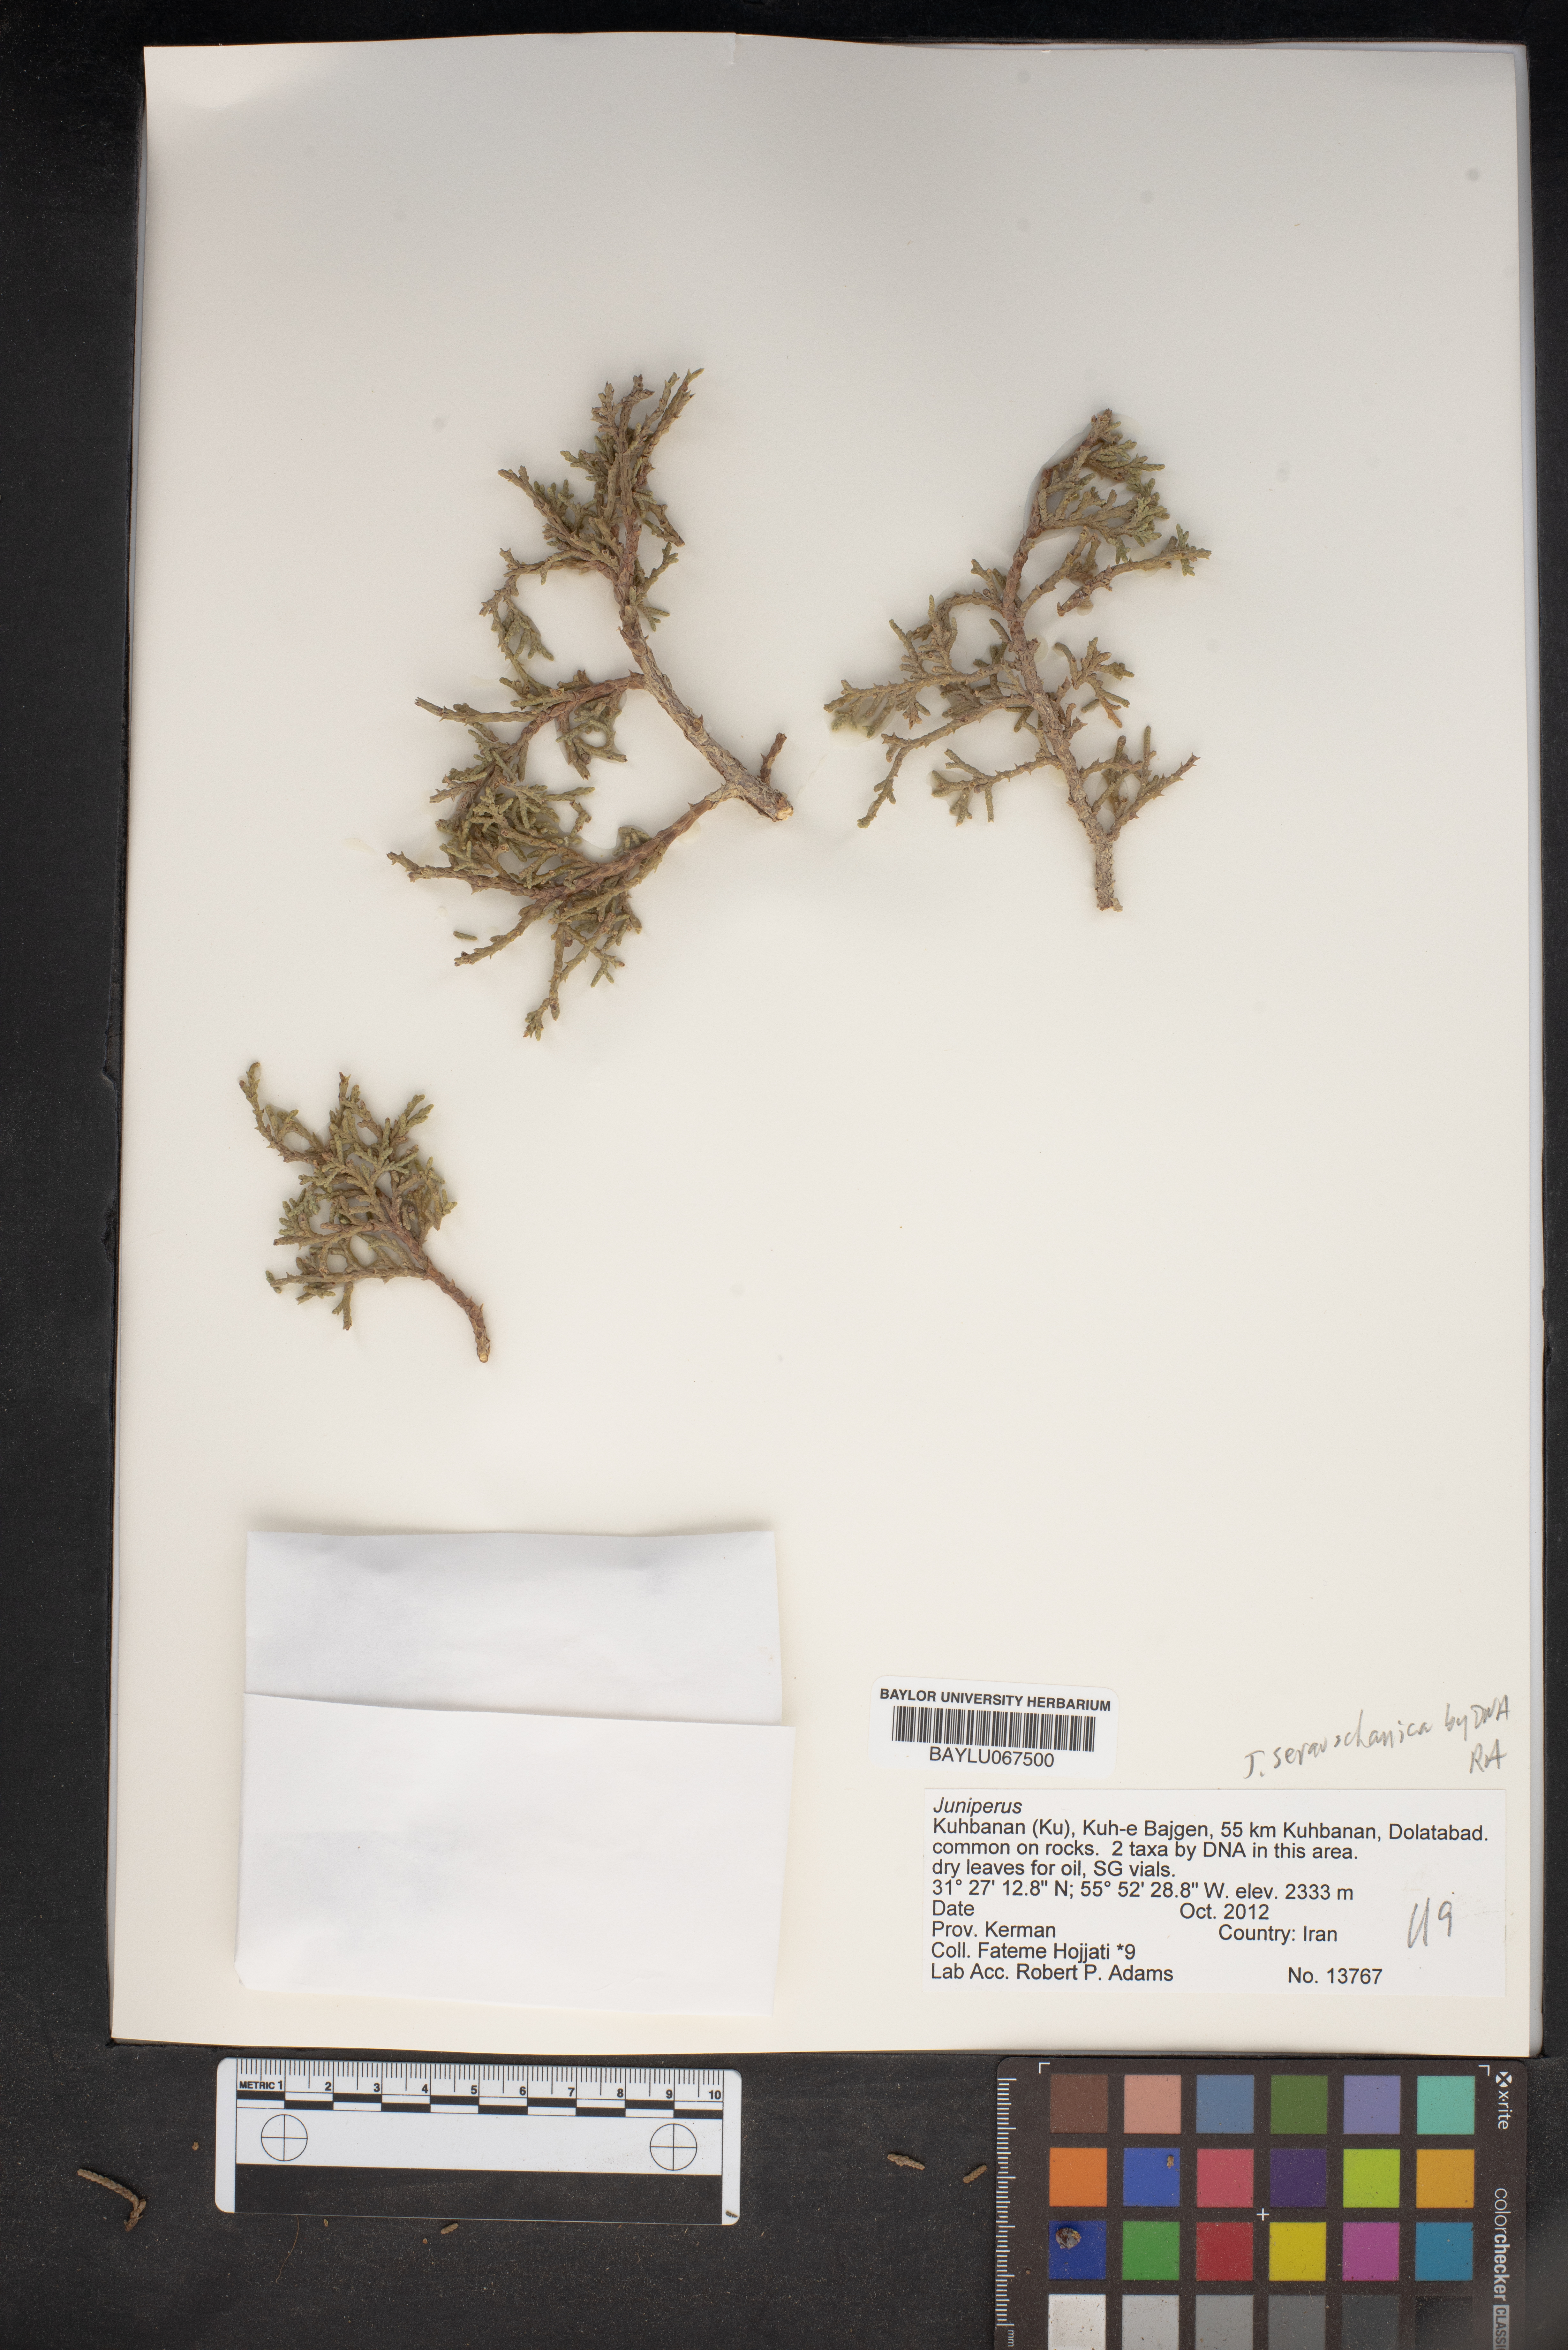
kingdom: Plantae
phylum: Tracheophyta
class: Pinopsida
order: Pinales
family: Cupressaceae
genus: Juniperus
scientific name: Juniperus
